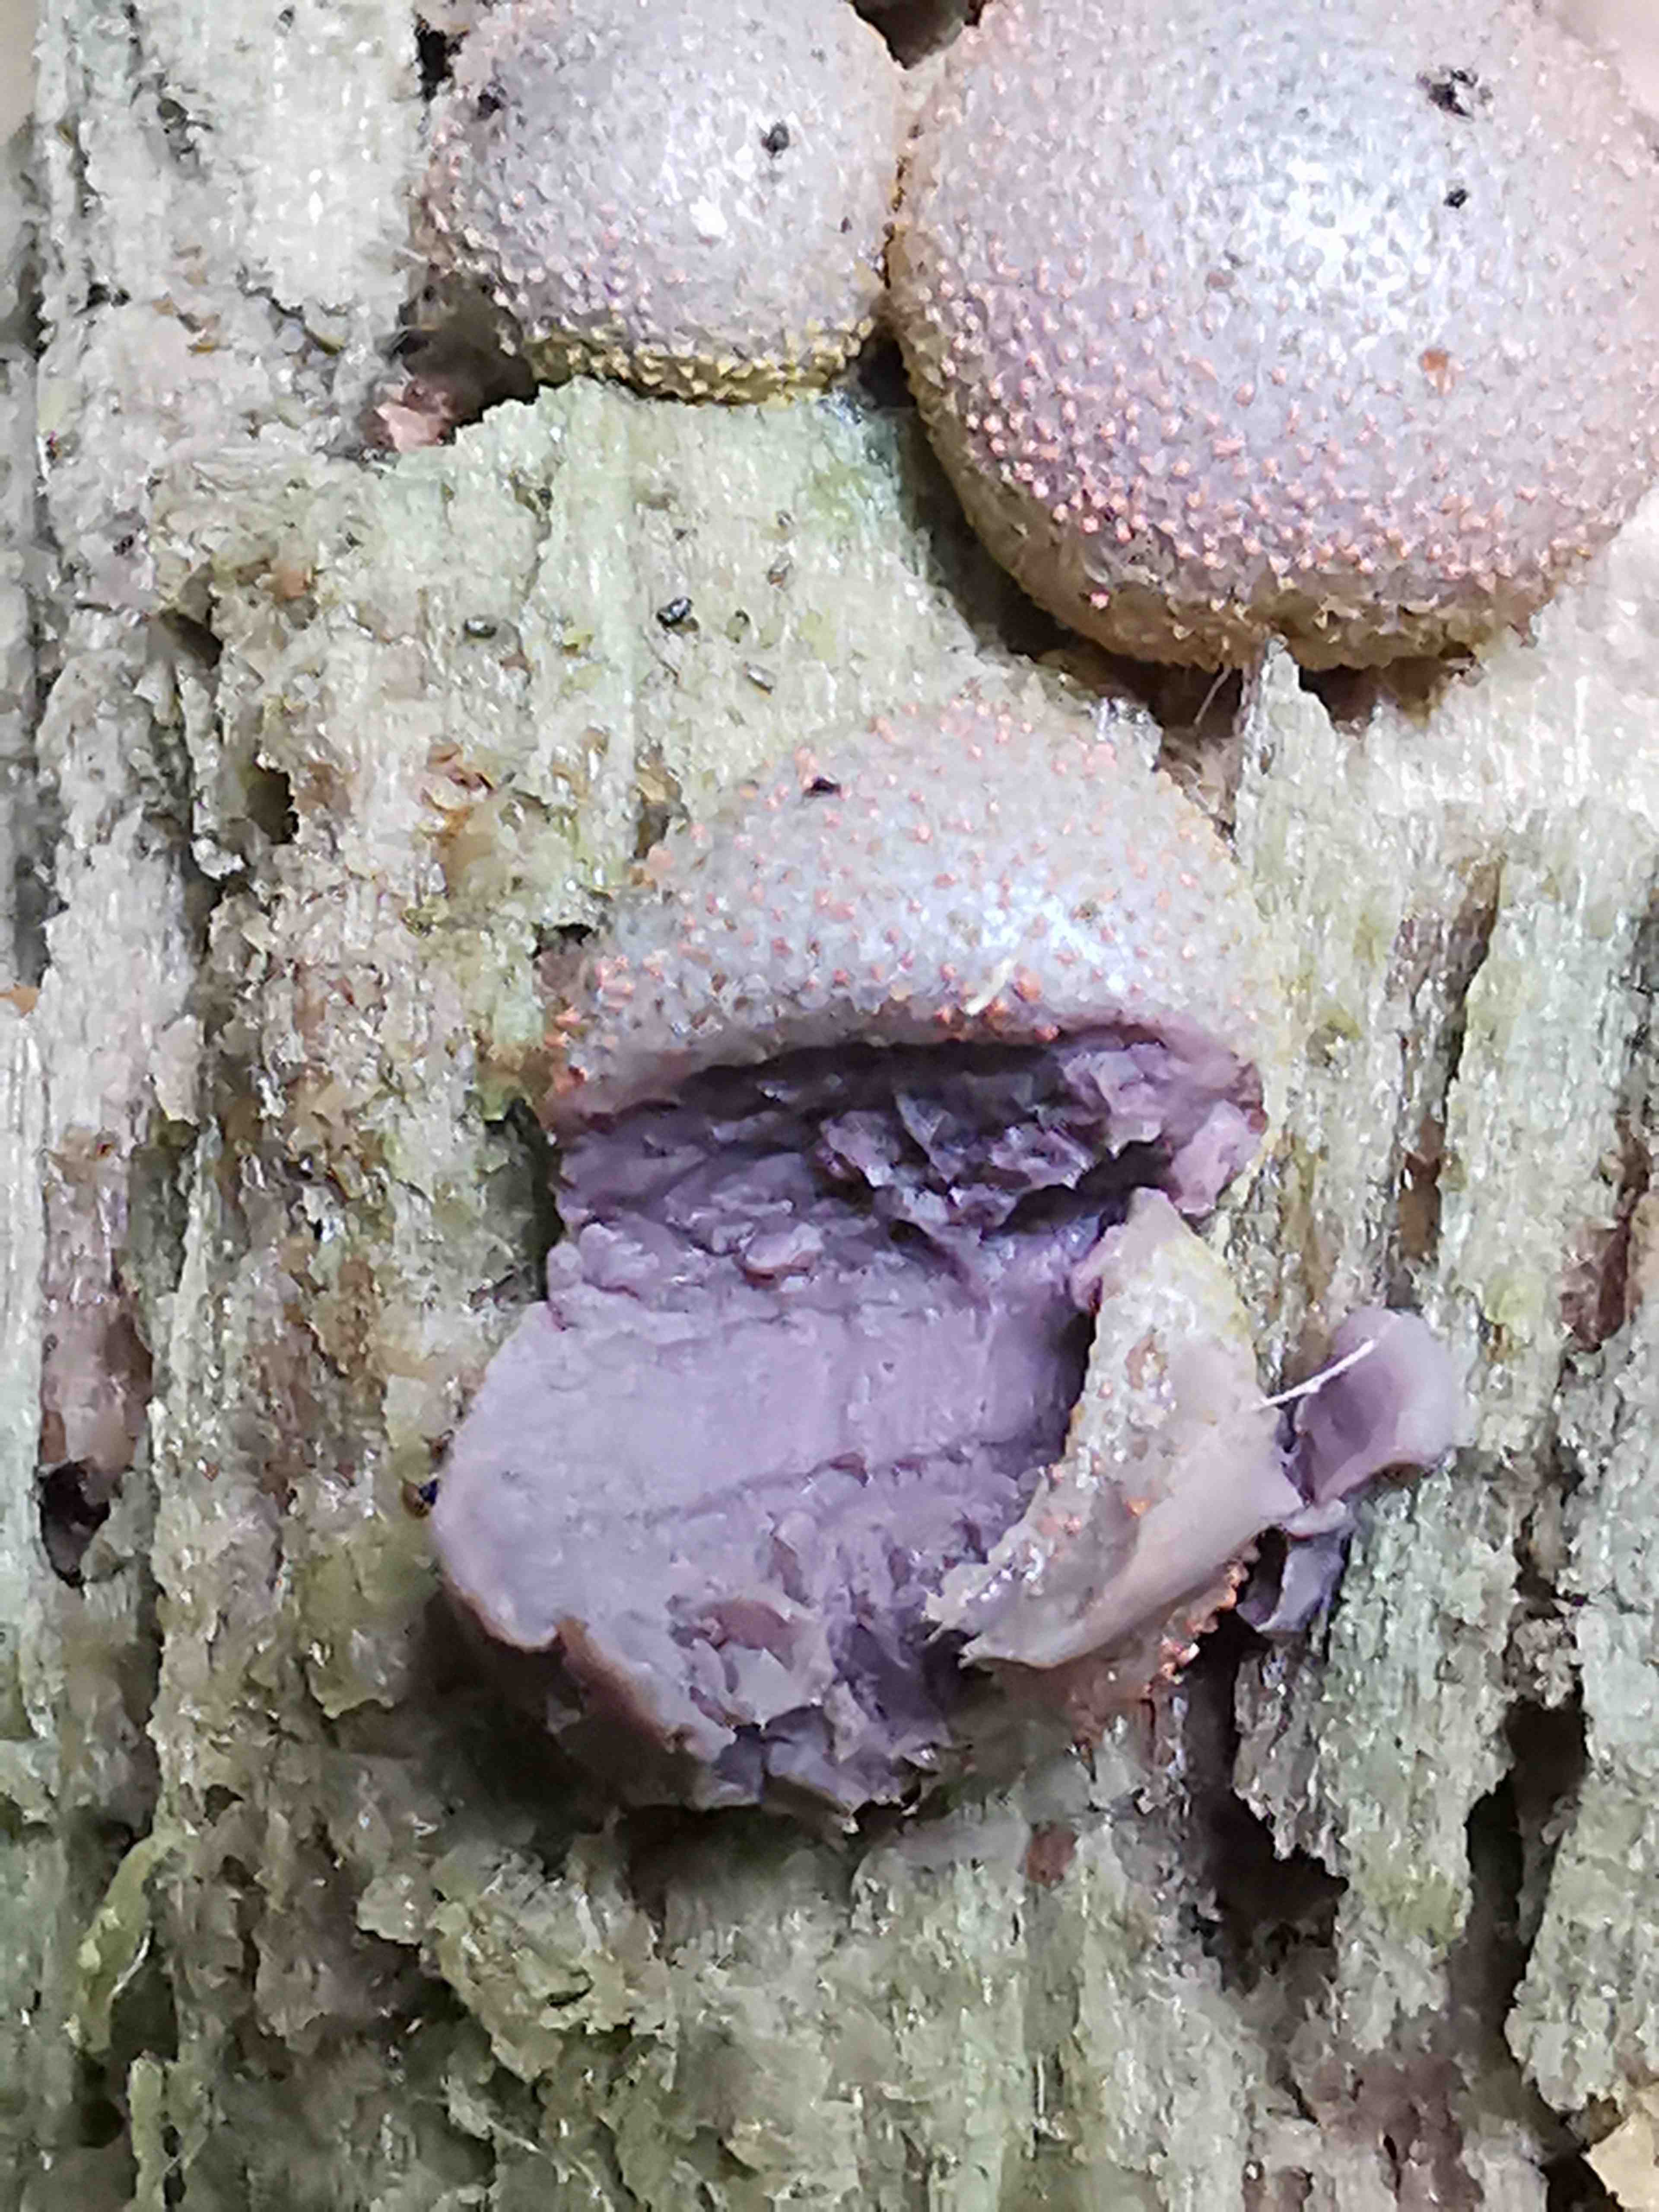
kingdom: Protozoa
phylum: Mycetozoa
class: Myxomycetes
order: Cribrariales
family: Tubiferaceae
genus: Lycogala
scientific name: Lycogala epidendrum
